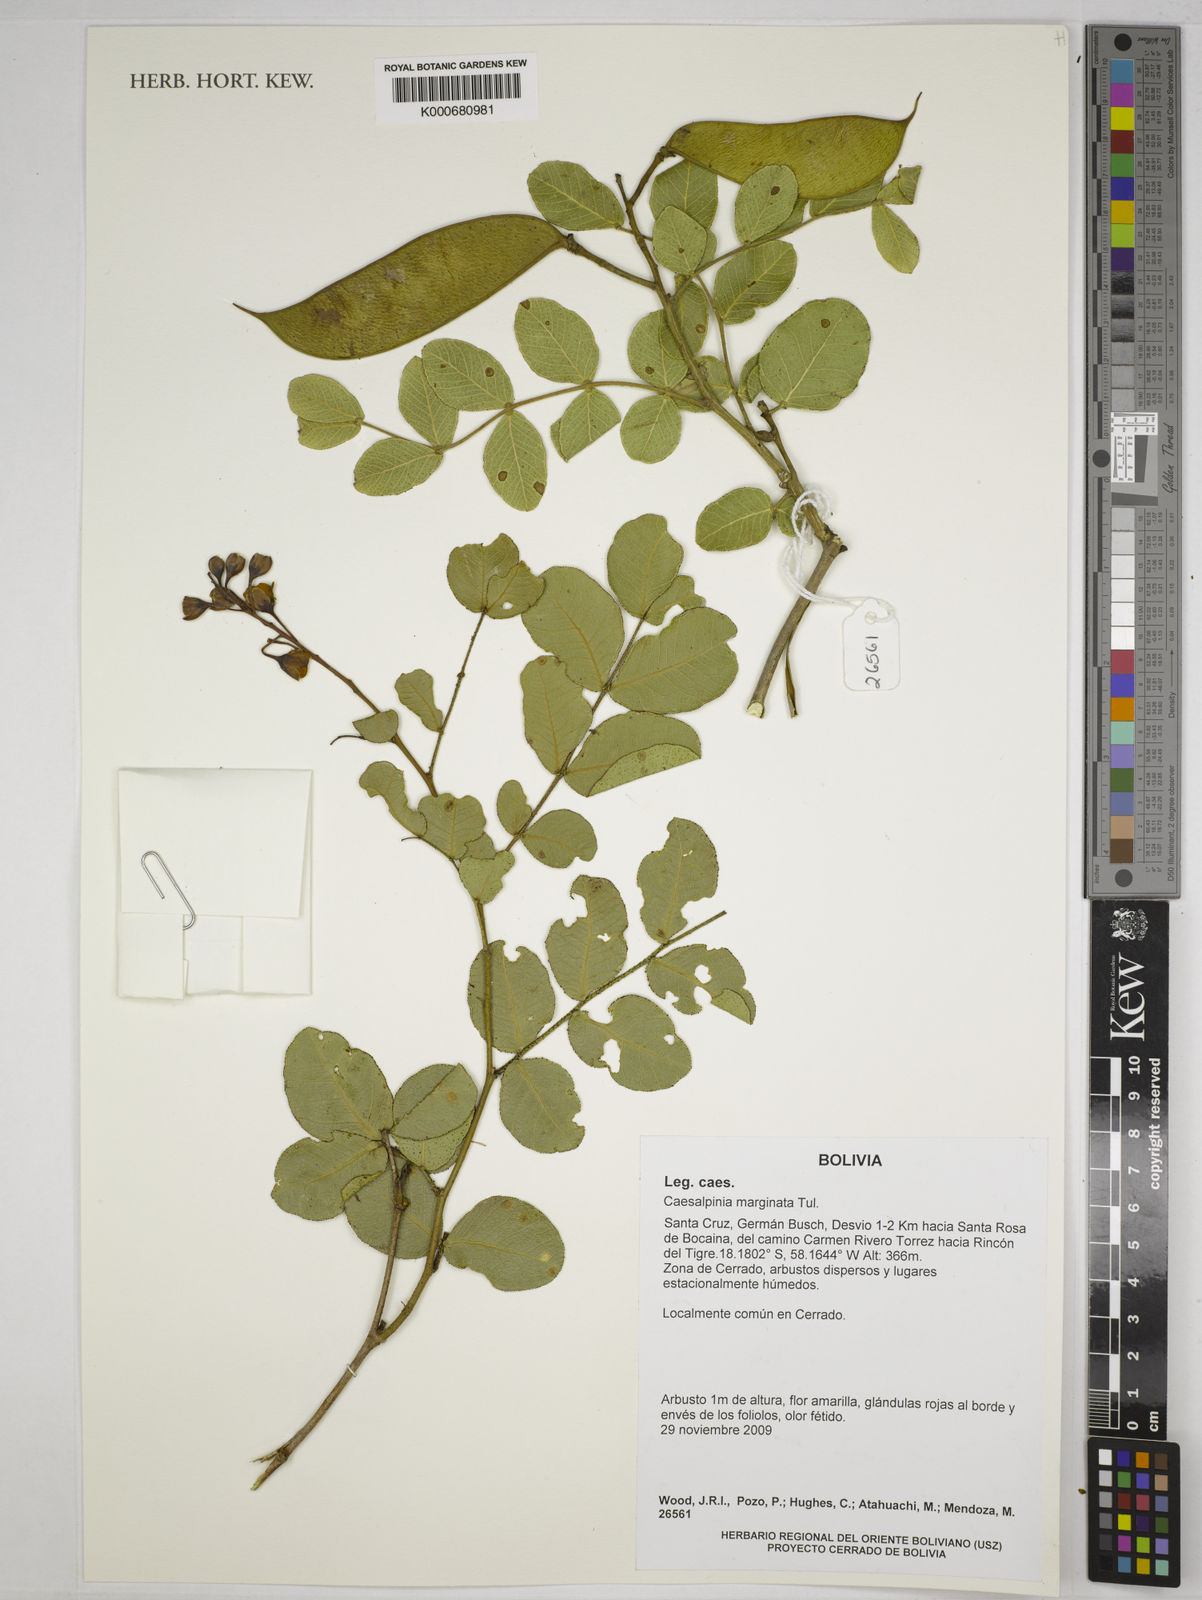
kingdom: Plantae
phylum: Tracheophyta
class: Magnoliopsida
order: Fabales
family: Fabaceae
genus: Cenostigma
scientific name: Cenostigma marginatum
